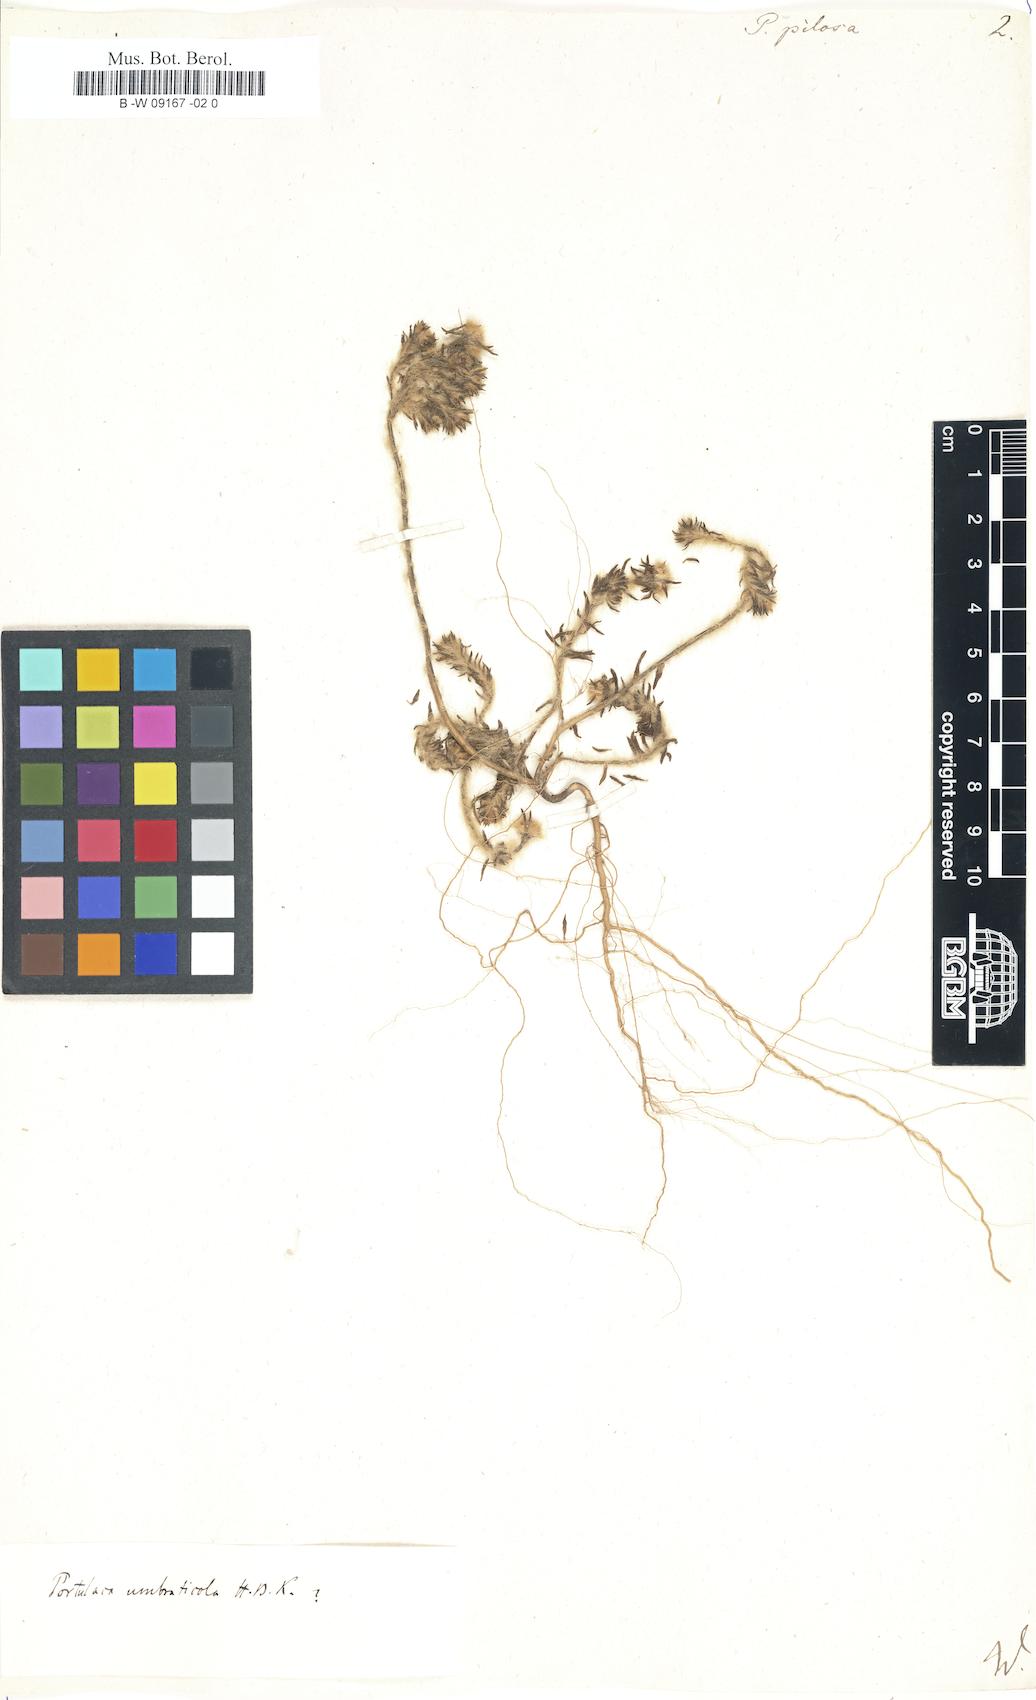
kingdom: Plantae
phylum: Tracheophyta
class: Magnoliopsida
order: Caryophyllales
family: Portulacaceae
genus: Portulaca
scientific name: Portulaca pilosa
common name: Kiss me quick
